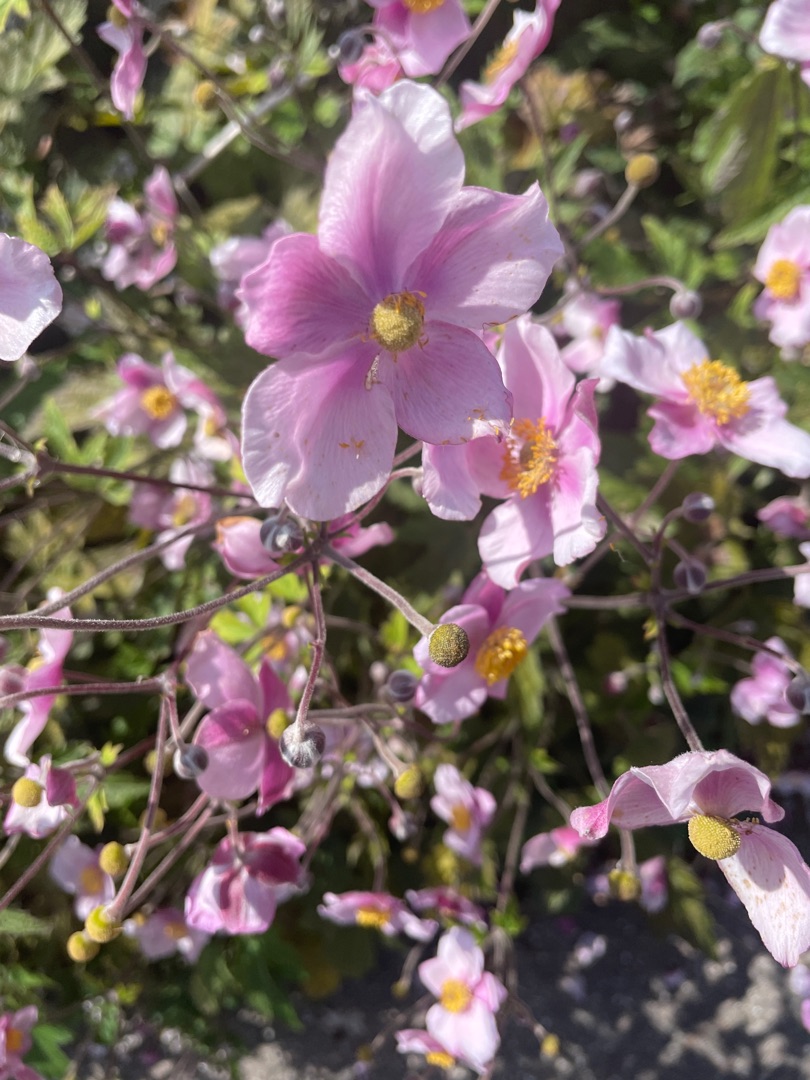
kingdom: Plantae
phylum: Tracheophyta
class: Magnoliopsida
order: Ranunculales
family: Ranunculaceae
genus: Eriocapitella
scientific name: Eriocapitella hupehensis
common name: Høst-anemone
